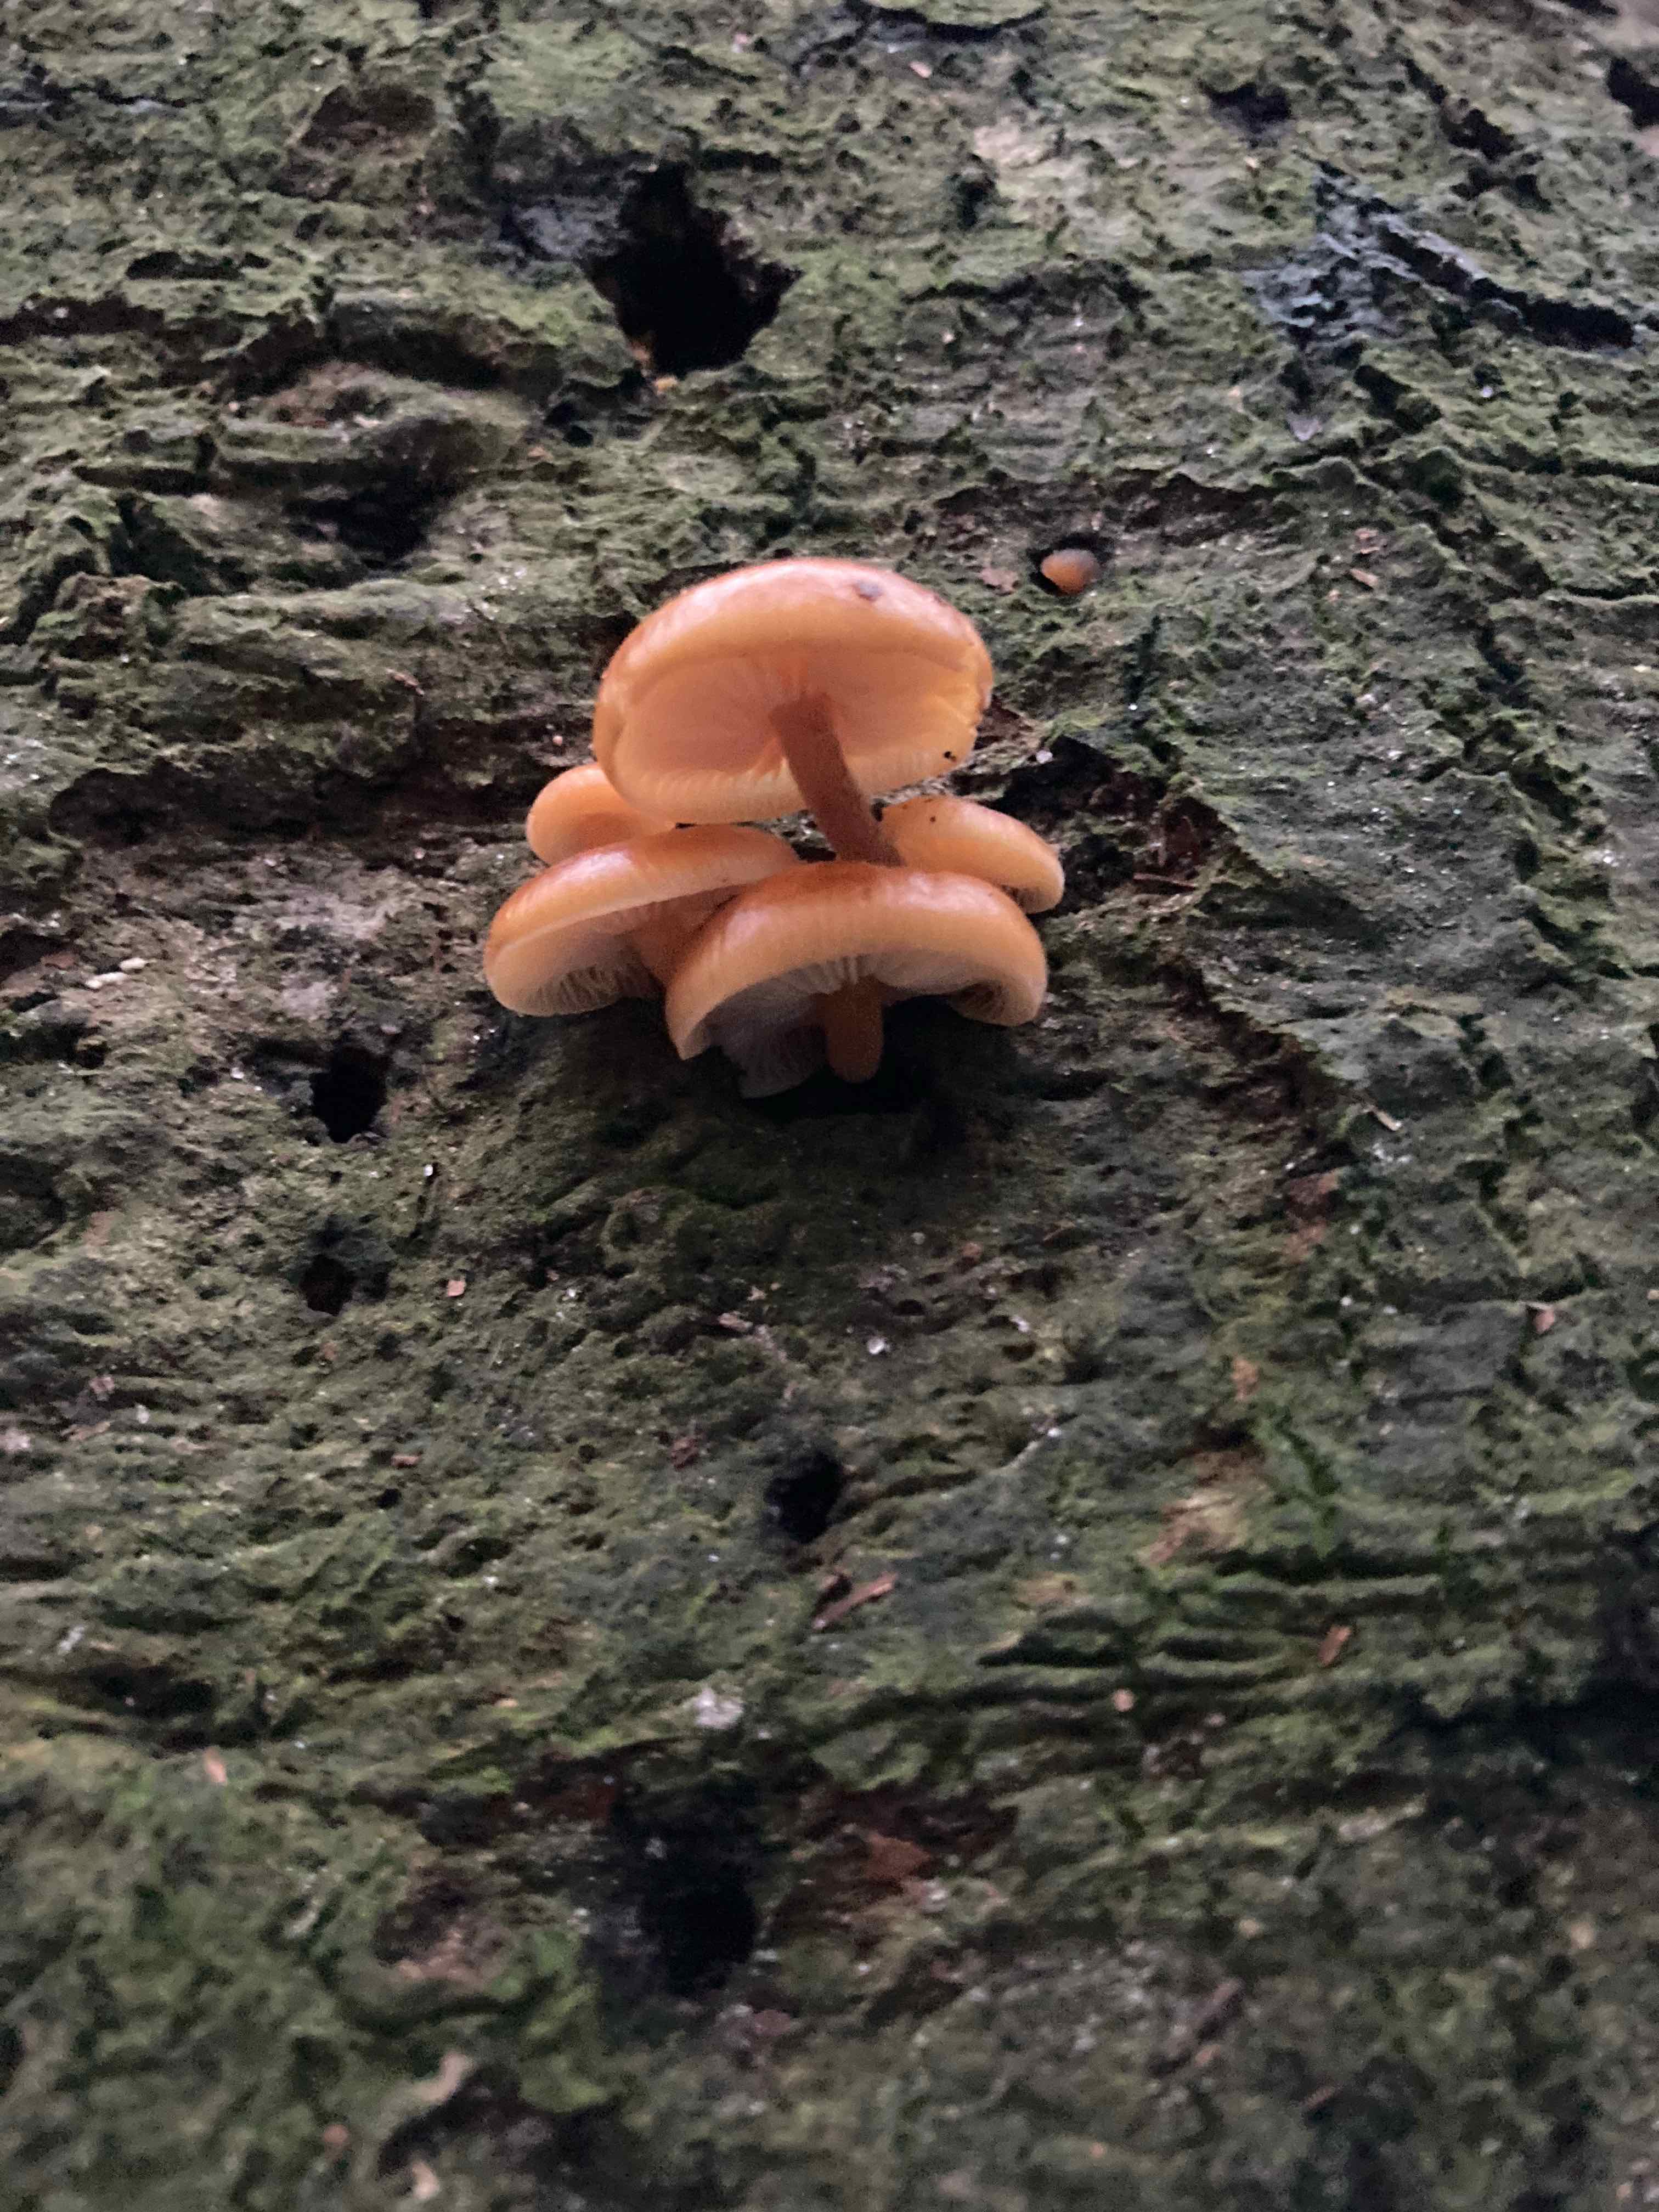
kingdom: Fungi
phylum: Basidiomycota
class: Agaricomycetes
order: Agaricales
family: Physalacriaceae
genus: Flammulina
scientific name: Flammulina
